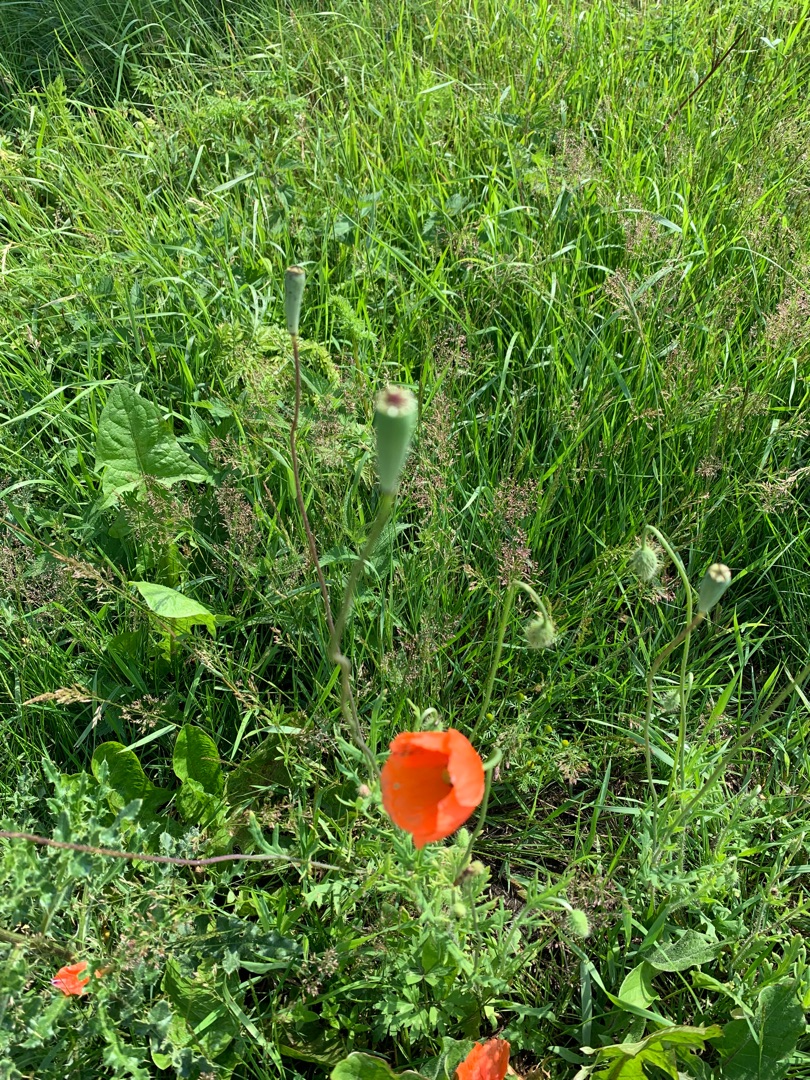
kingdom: Plantae
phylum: Tracheophyta
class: Magnoliopsida
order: Ranunculales
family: Papaveraceae
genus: Papaver
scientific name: Papaver dubium
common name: Gærde-valmue
